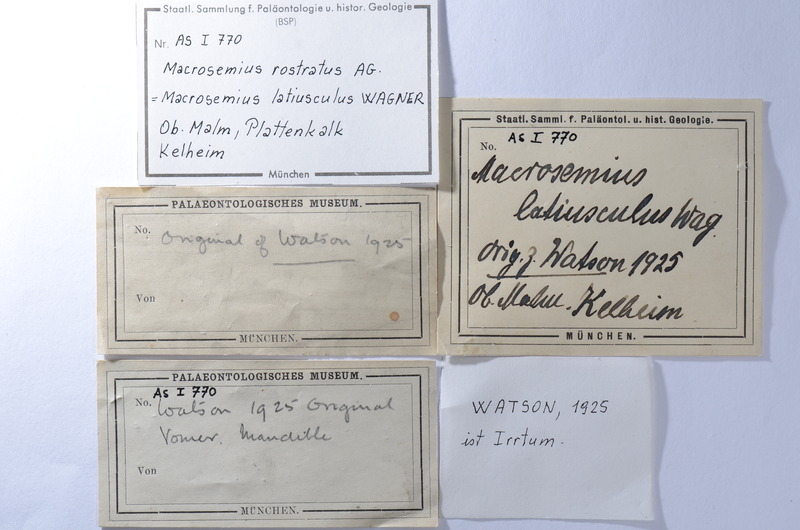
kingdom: Animalia
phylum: Chordata
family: Macrosemiidae
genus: Macrosemius
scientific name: Macrosemius rostratus
